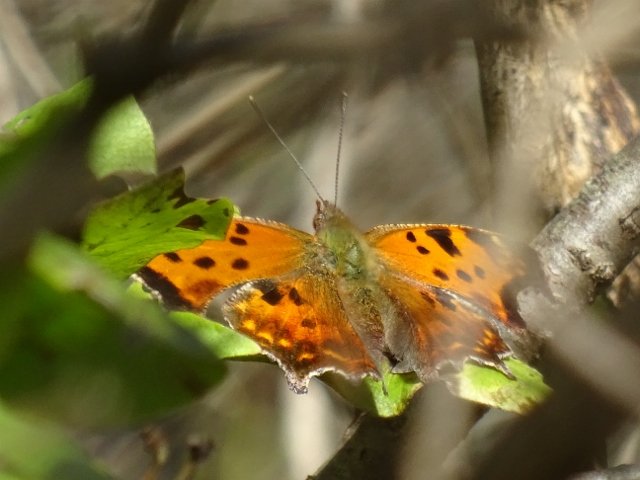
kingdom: Animalia
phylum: Arthropoda
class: Insecta
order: Lepidoptera
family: Nymphalidae
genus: Polygonia
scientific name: Polygonia comma
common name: Eastern Comma
